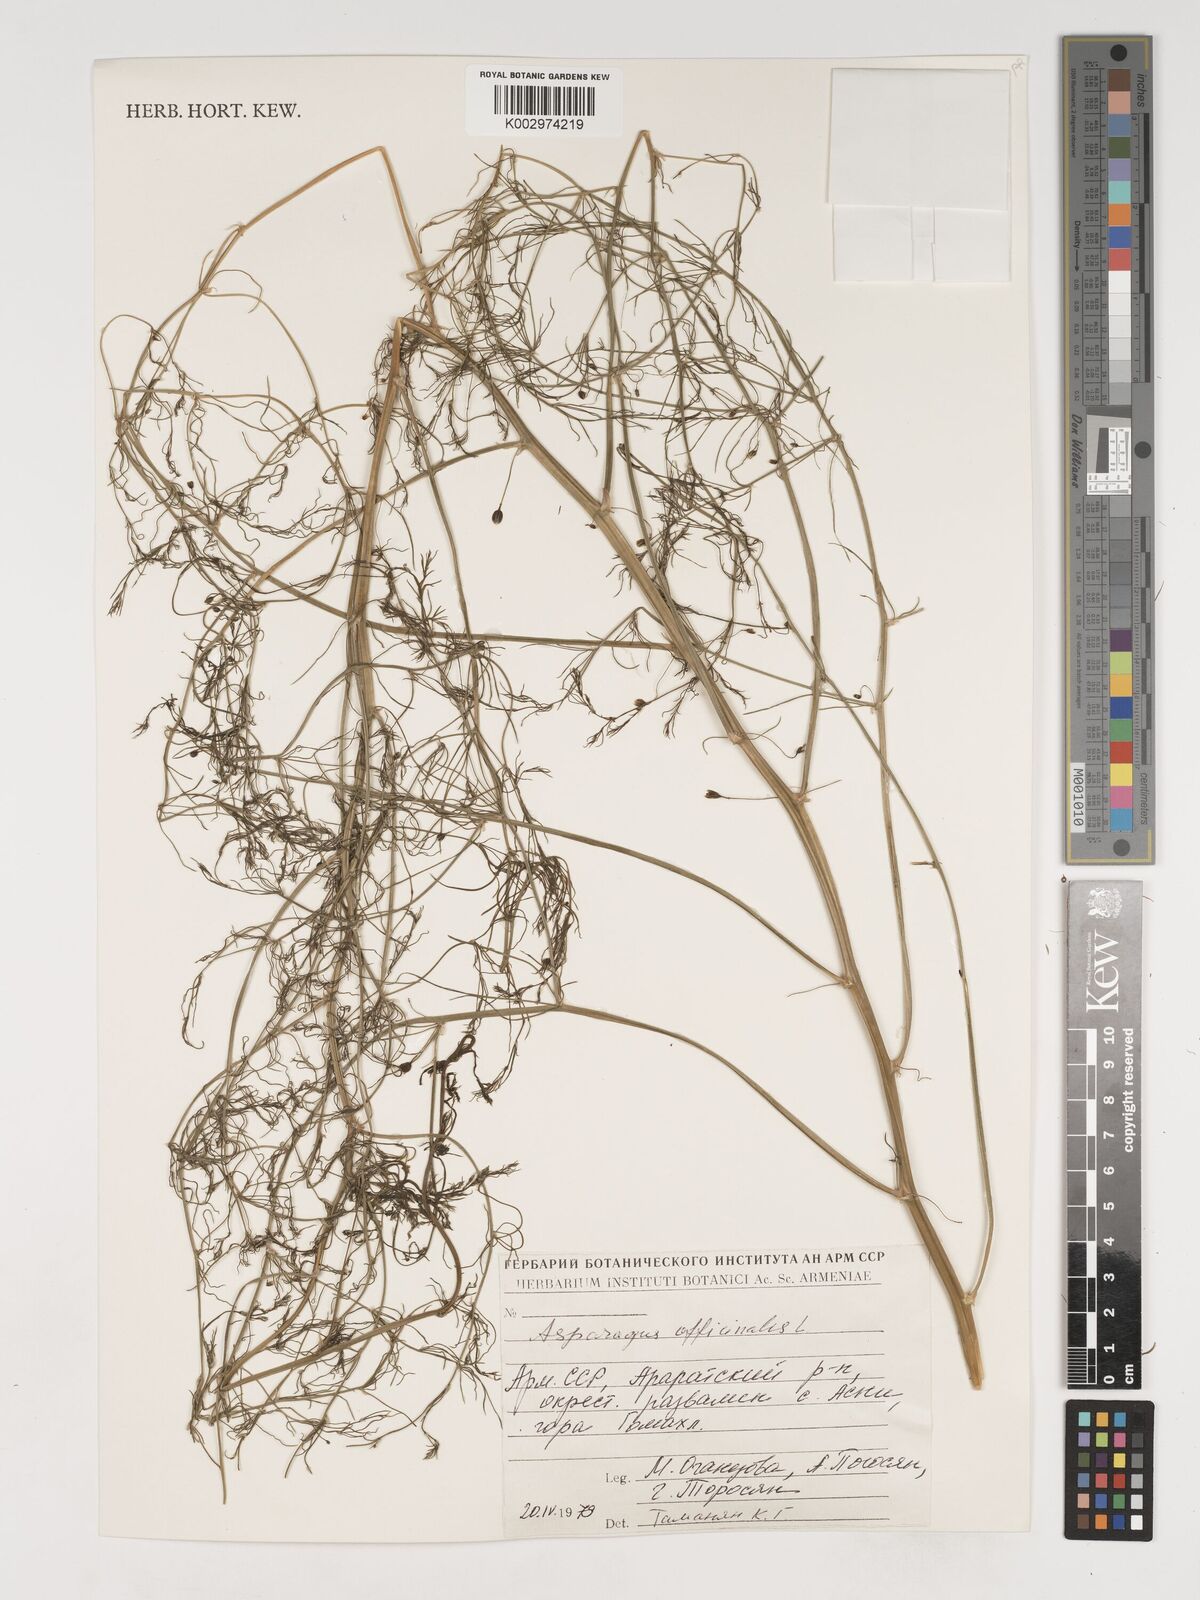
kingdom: Plantae
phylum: Tracheophyta
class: Liliopsida
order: Asparagales
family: Asparagaceae
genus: Asparagus
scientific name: Asparagus officinalis
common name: Garden asparagus
